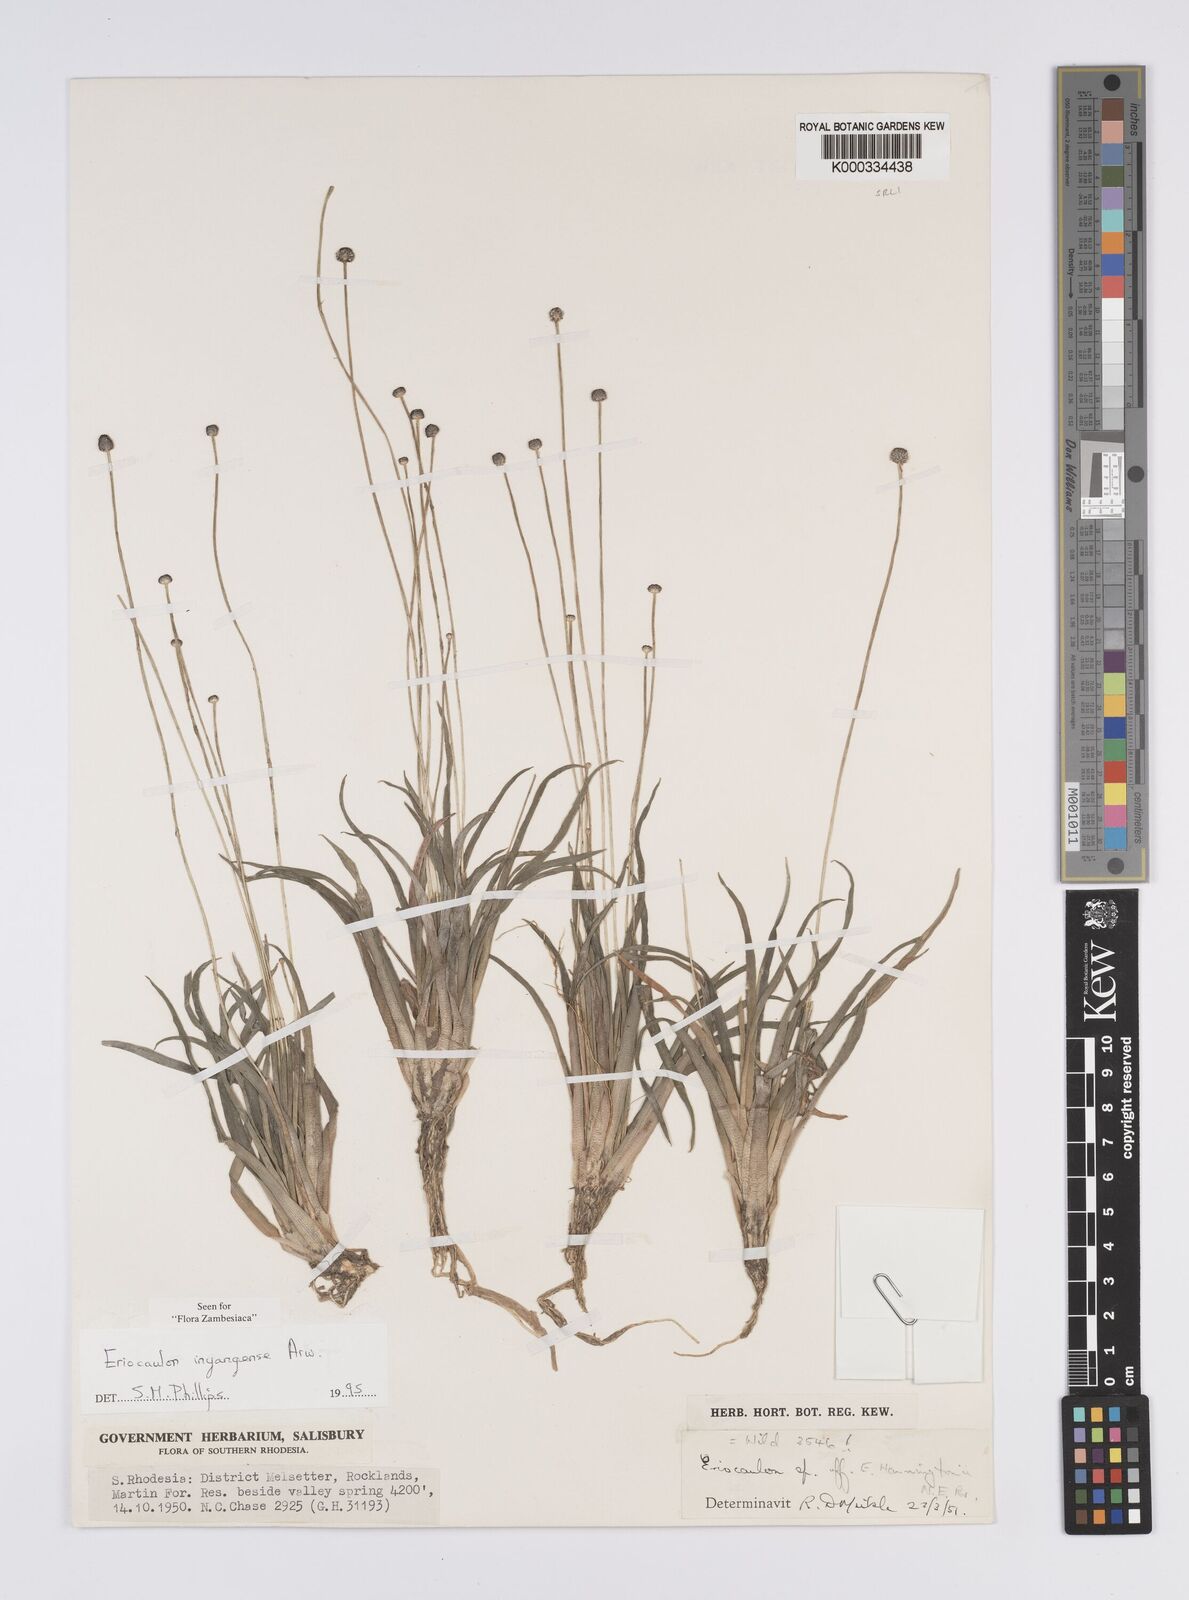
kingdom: Plantae
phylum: Tracheophyta
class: Liliopsida
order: Poales
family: Eriocaulaceae
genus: Eriocaulon
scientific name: Eriocaulon inyangense
